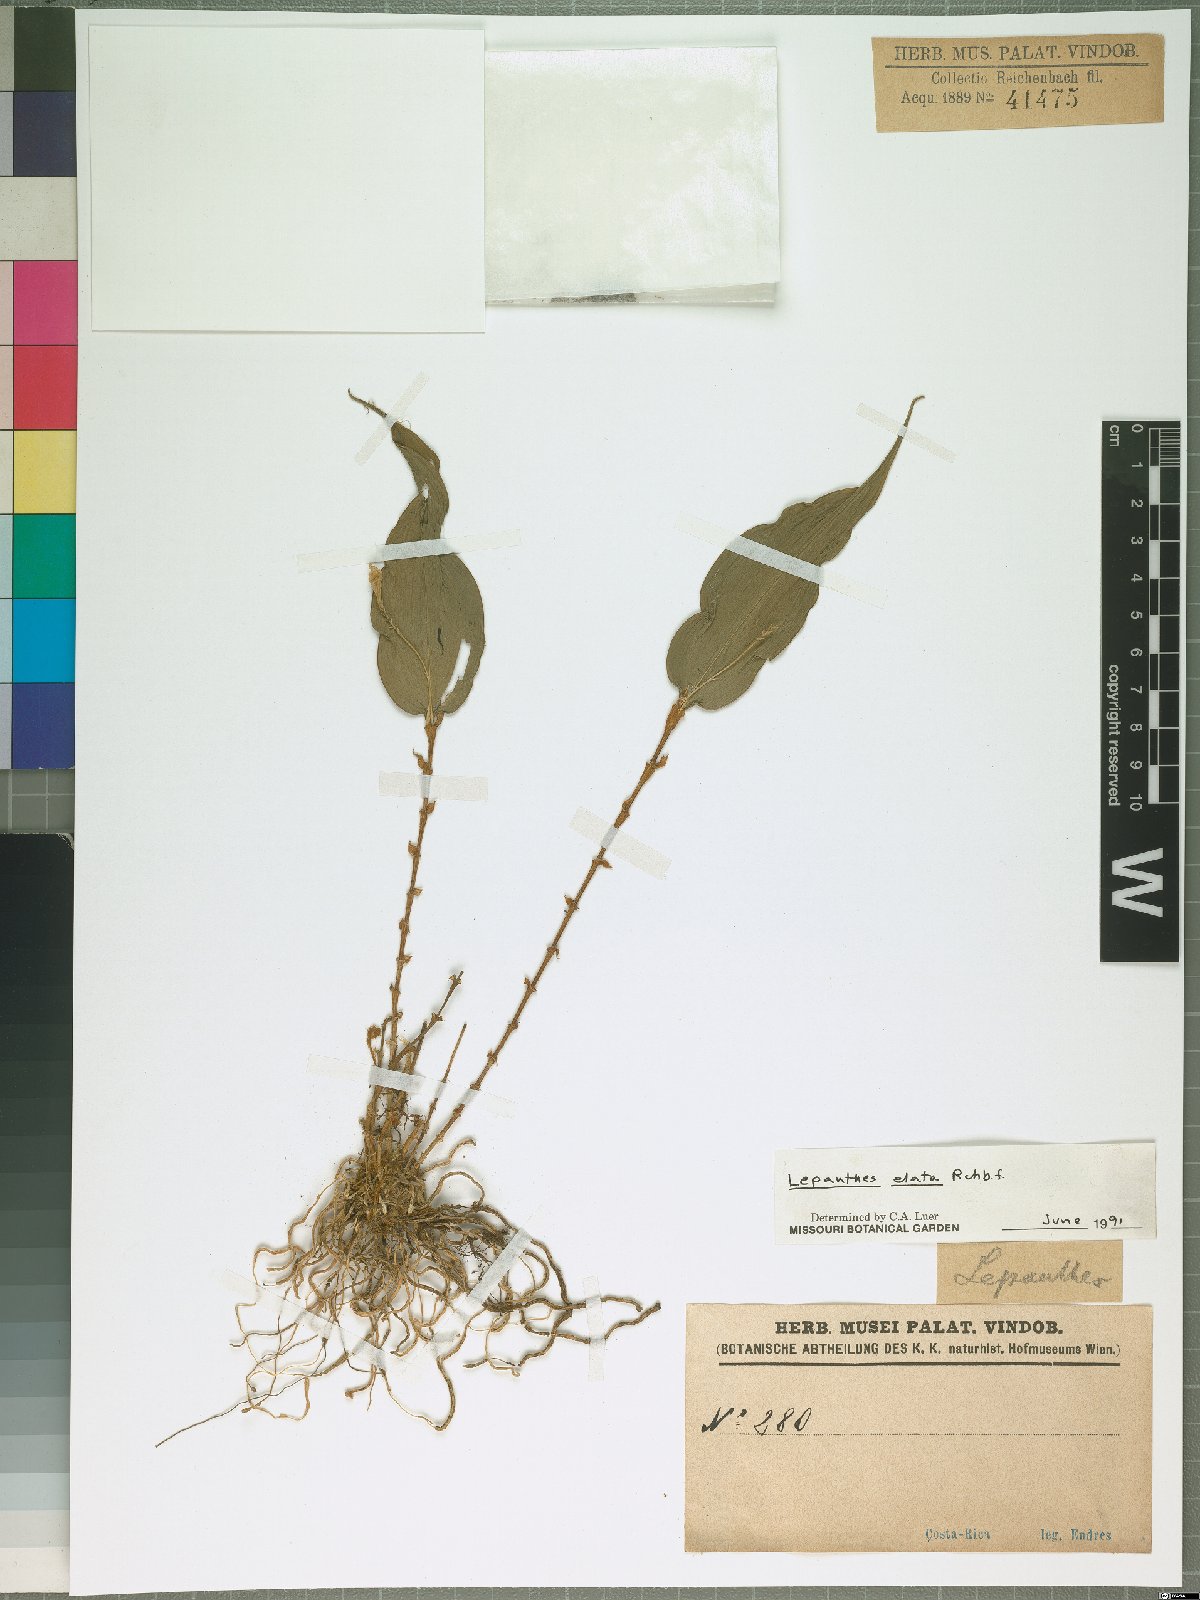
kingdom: Plantae
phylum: Tracheophyta
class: Liliopsida
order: Asparagales
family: Orchidaceae
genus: Lepanthes
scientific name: Lepanthes elata
